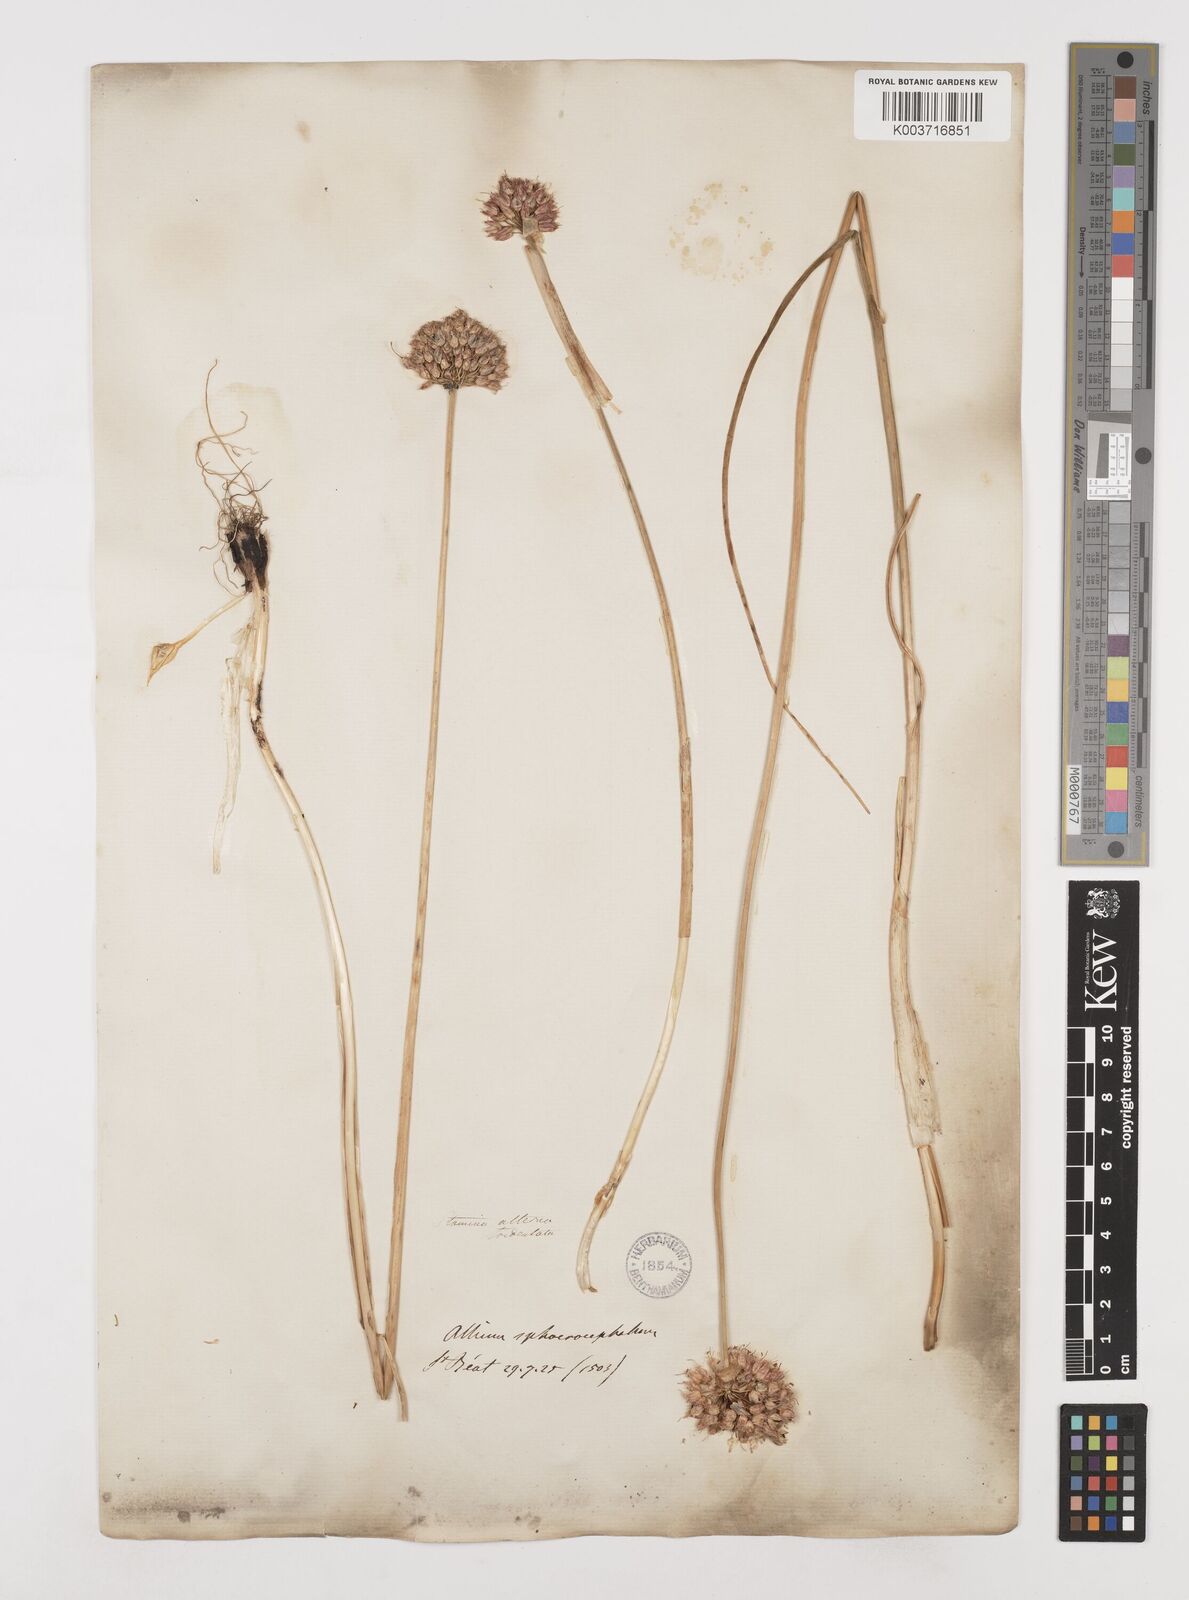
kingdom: Plantae
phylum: Tracheophyta
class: Liliopsida
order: Asparagales
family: Amaryllidaceae
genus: Allium
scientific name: Allium sphaerocephalon
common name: Round-headed leek
